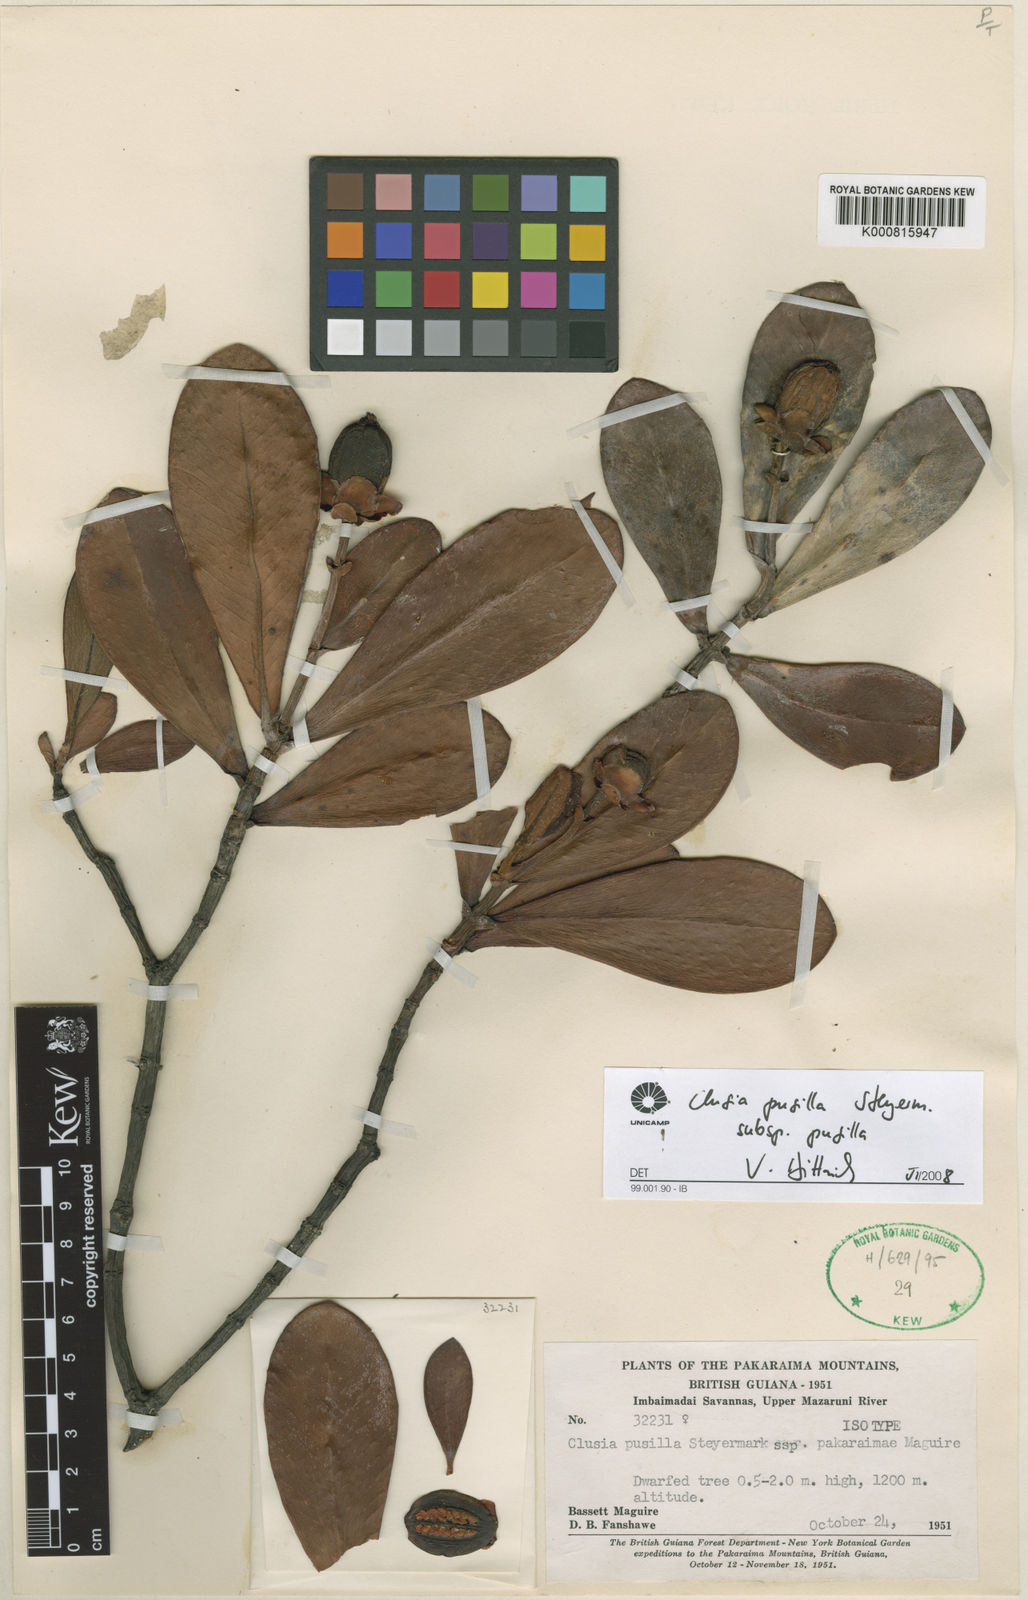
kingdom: Plantae
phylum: Tracheophyta
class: Magnoliopsida
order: Malpighiales
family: Clusiaceae
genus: Clusia
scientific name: Clusia pusilla
